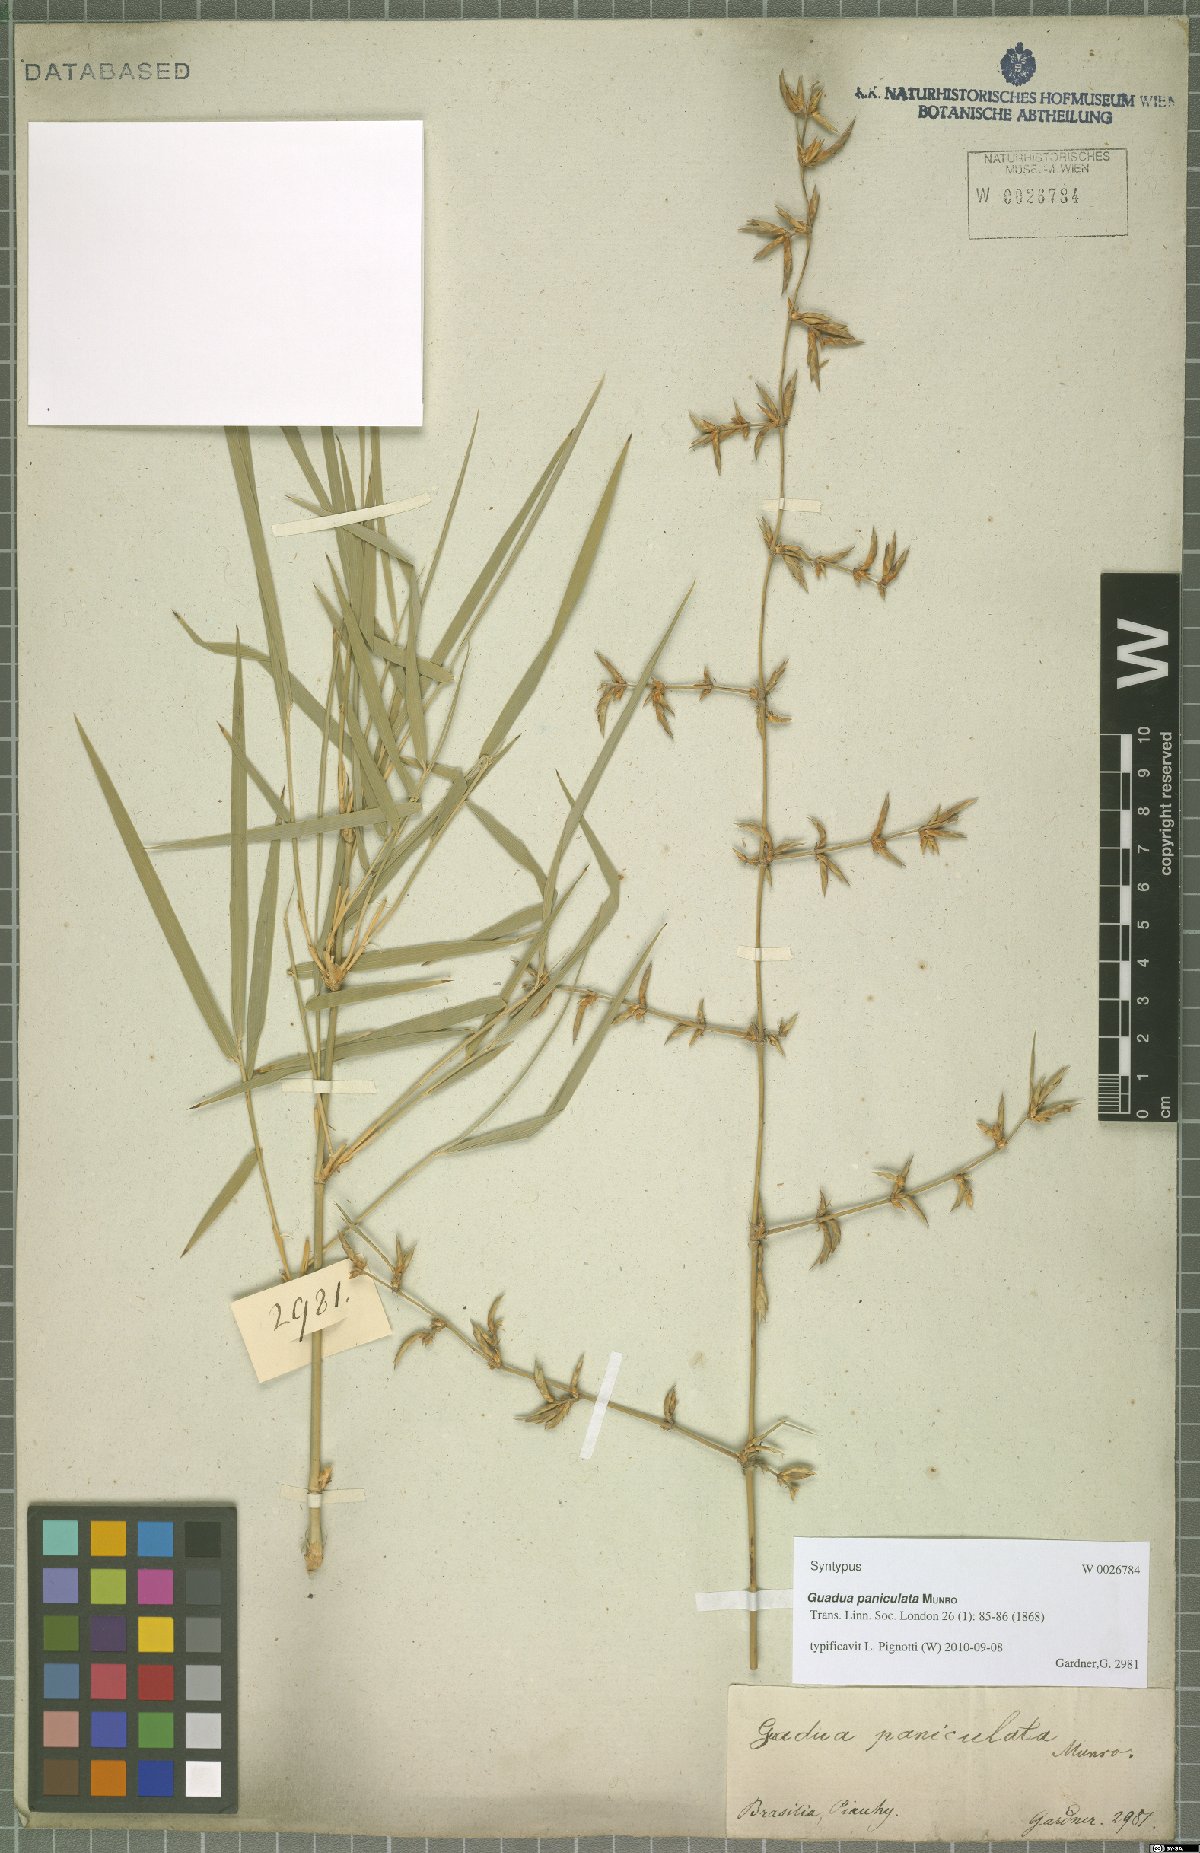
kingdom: Plantae
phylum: Tracheophyta
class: Liliopsida
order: Poales
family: Poaceae
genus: Guadua
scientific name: Guadua paniculata
